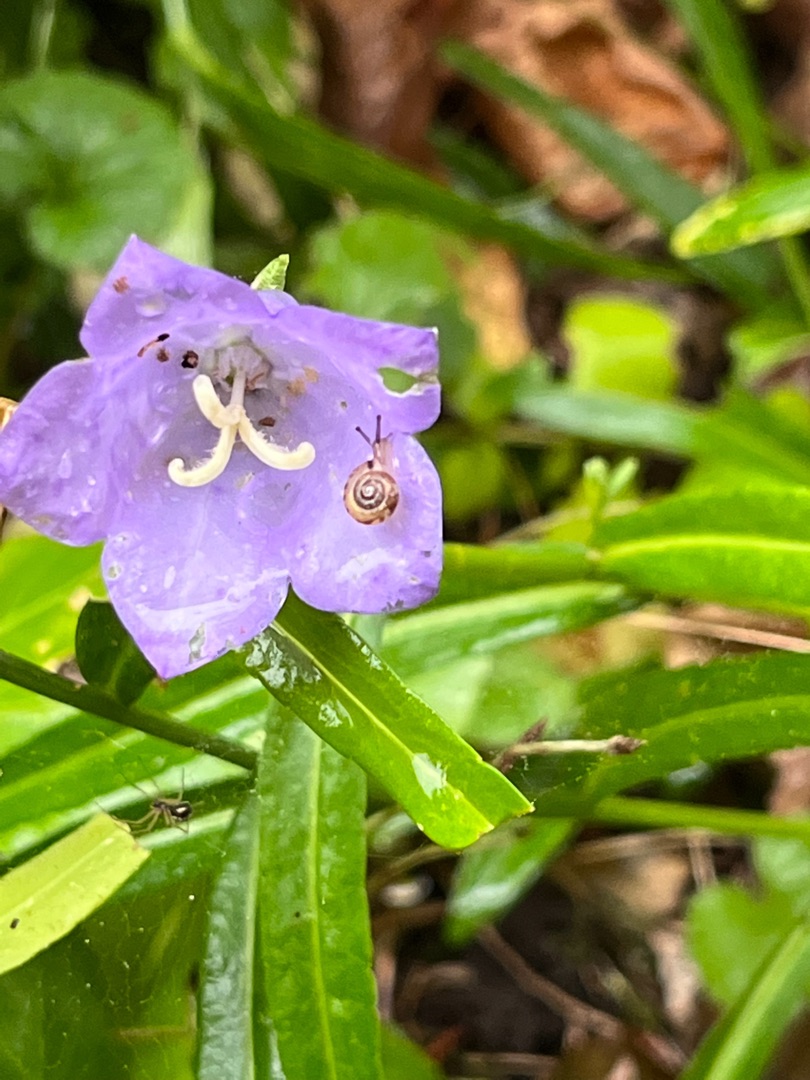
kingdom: Plantae
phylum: Tracheophyta
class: Magnoliopsida
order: Asterales
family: Campanulaceae
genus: Campanula
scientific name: Campanula persicifolia
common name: Smalbladet klokke
